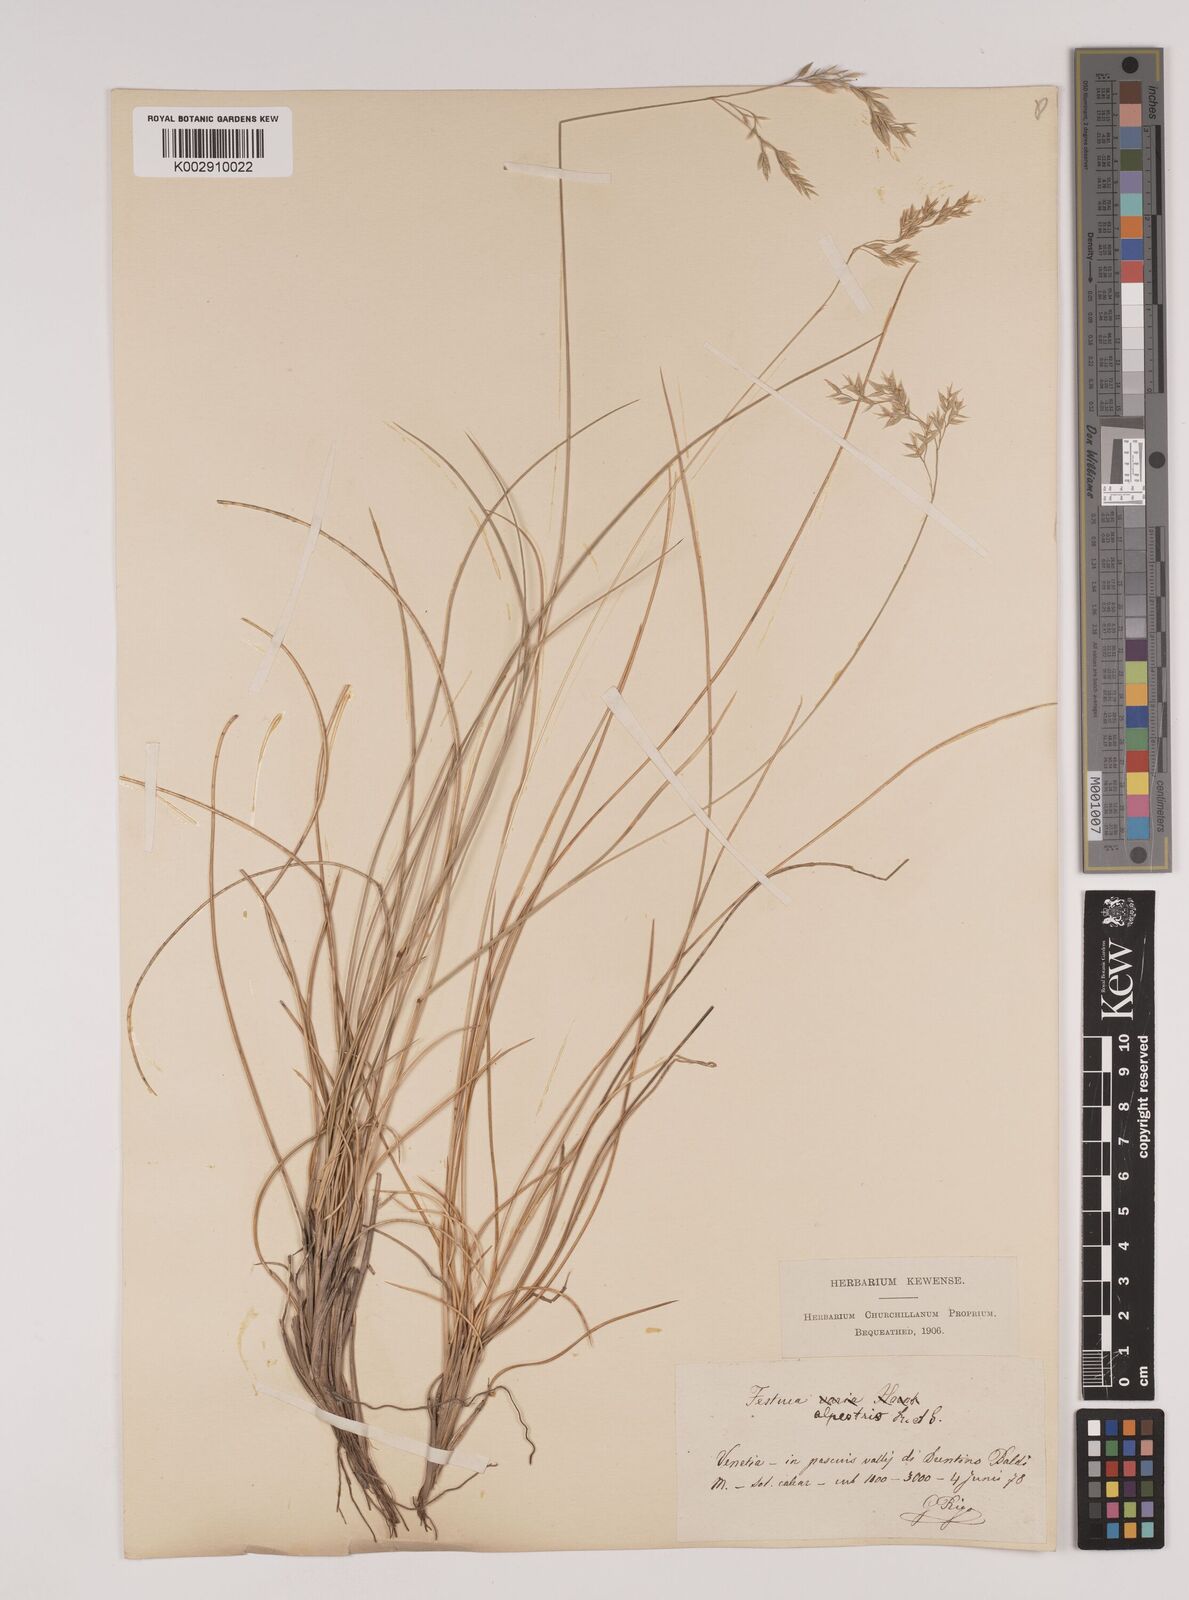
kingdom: Plantae
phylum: Tracheophyta
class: Liliopsida
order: Poales
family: Poaceae
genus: Festuca
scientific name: Festuca alpestris
